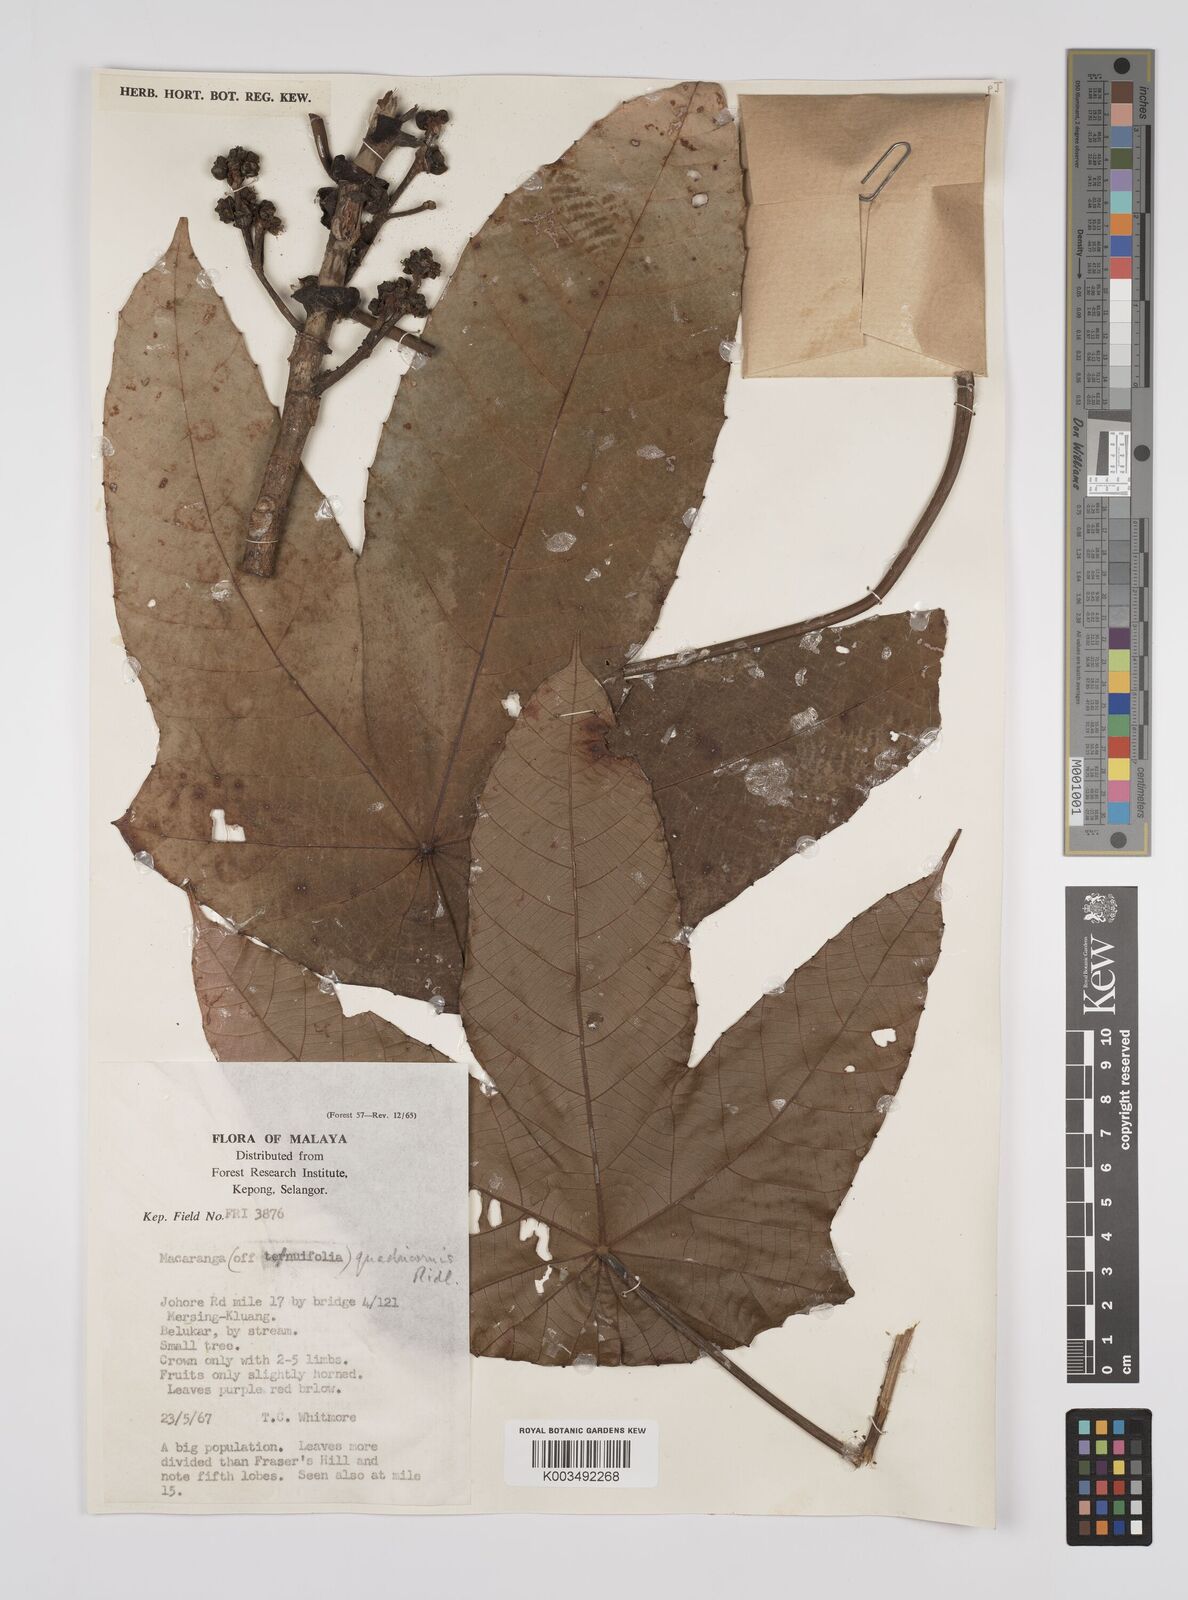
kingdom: Plantae
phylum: Tracheophyta
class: Magnoliopsida
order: Malpighiales
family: Euphorbiaceae
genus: Macaranga
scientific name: Macaranga triloba
